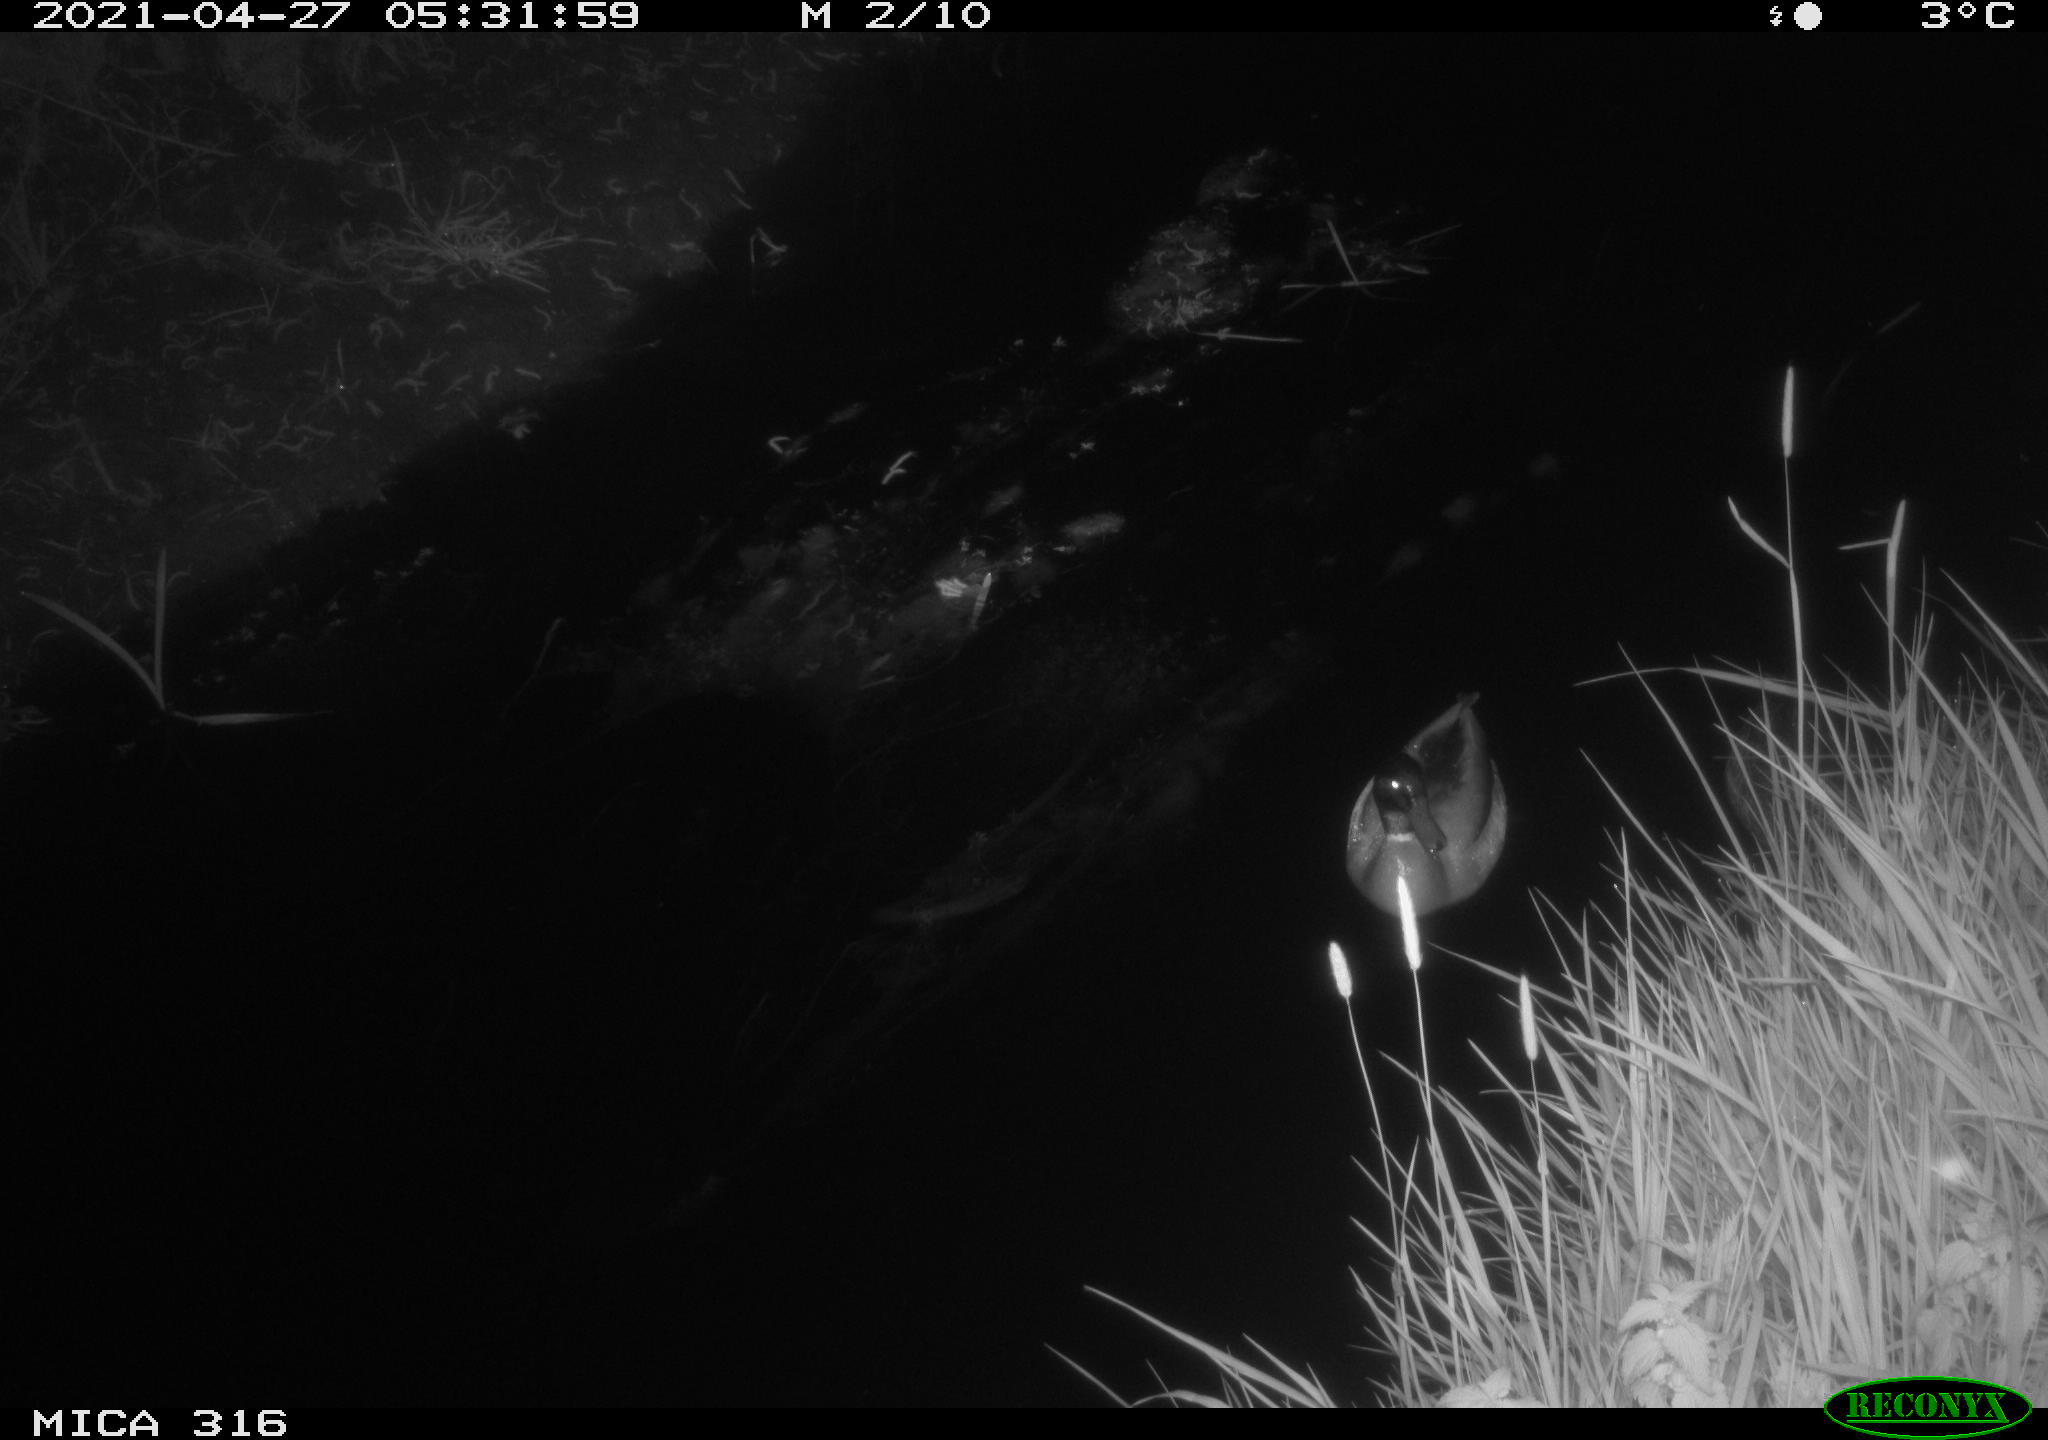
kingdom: Animalia
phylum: Chordata
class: Aves
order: Anseriformes
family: Anatidae
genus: Anas
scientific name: Anas platyrhynchos
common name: Mallard
